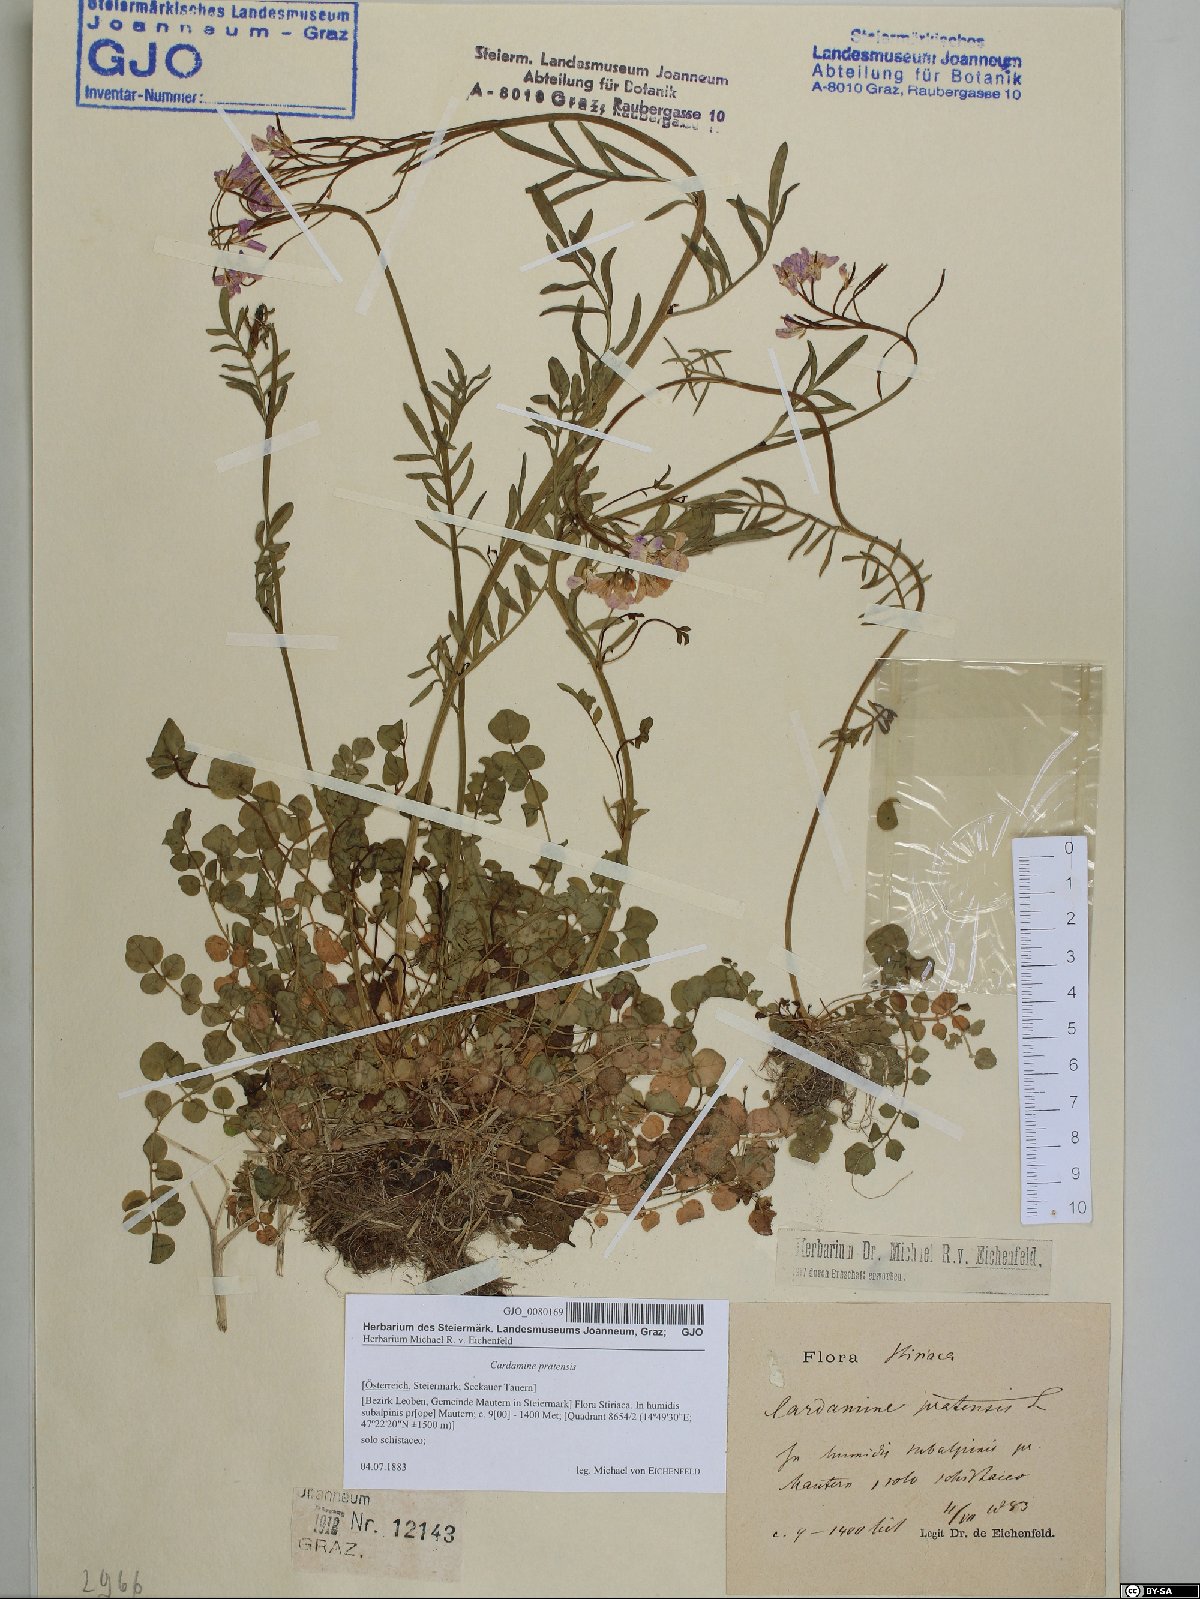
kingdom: Plantae
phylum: Tracheophyta
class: Magnoliopsida
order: Brassicales
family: Brassicaceae
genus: Cardamine
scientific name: Cardamine pratensis
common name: Cuckoo flower
